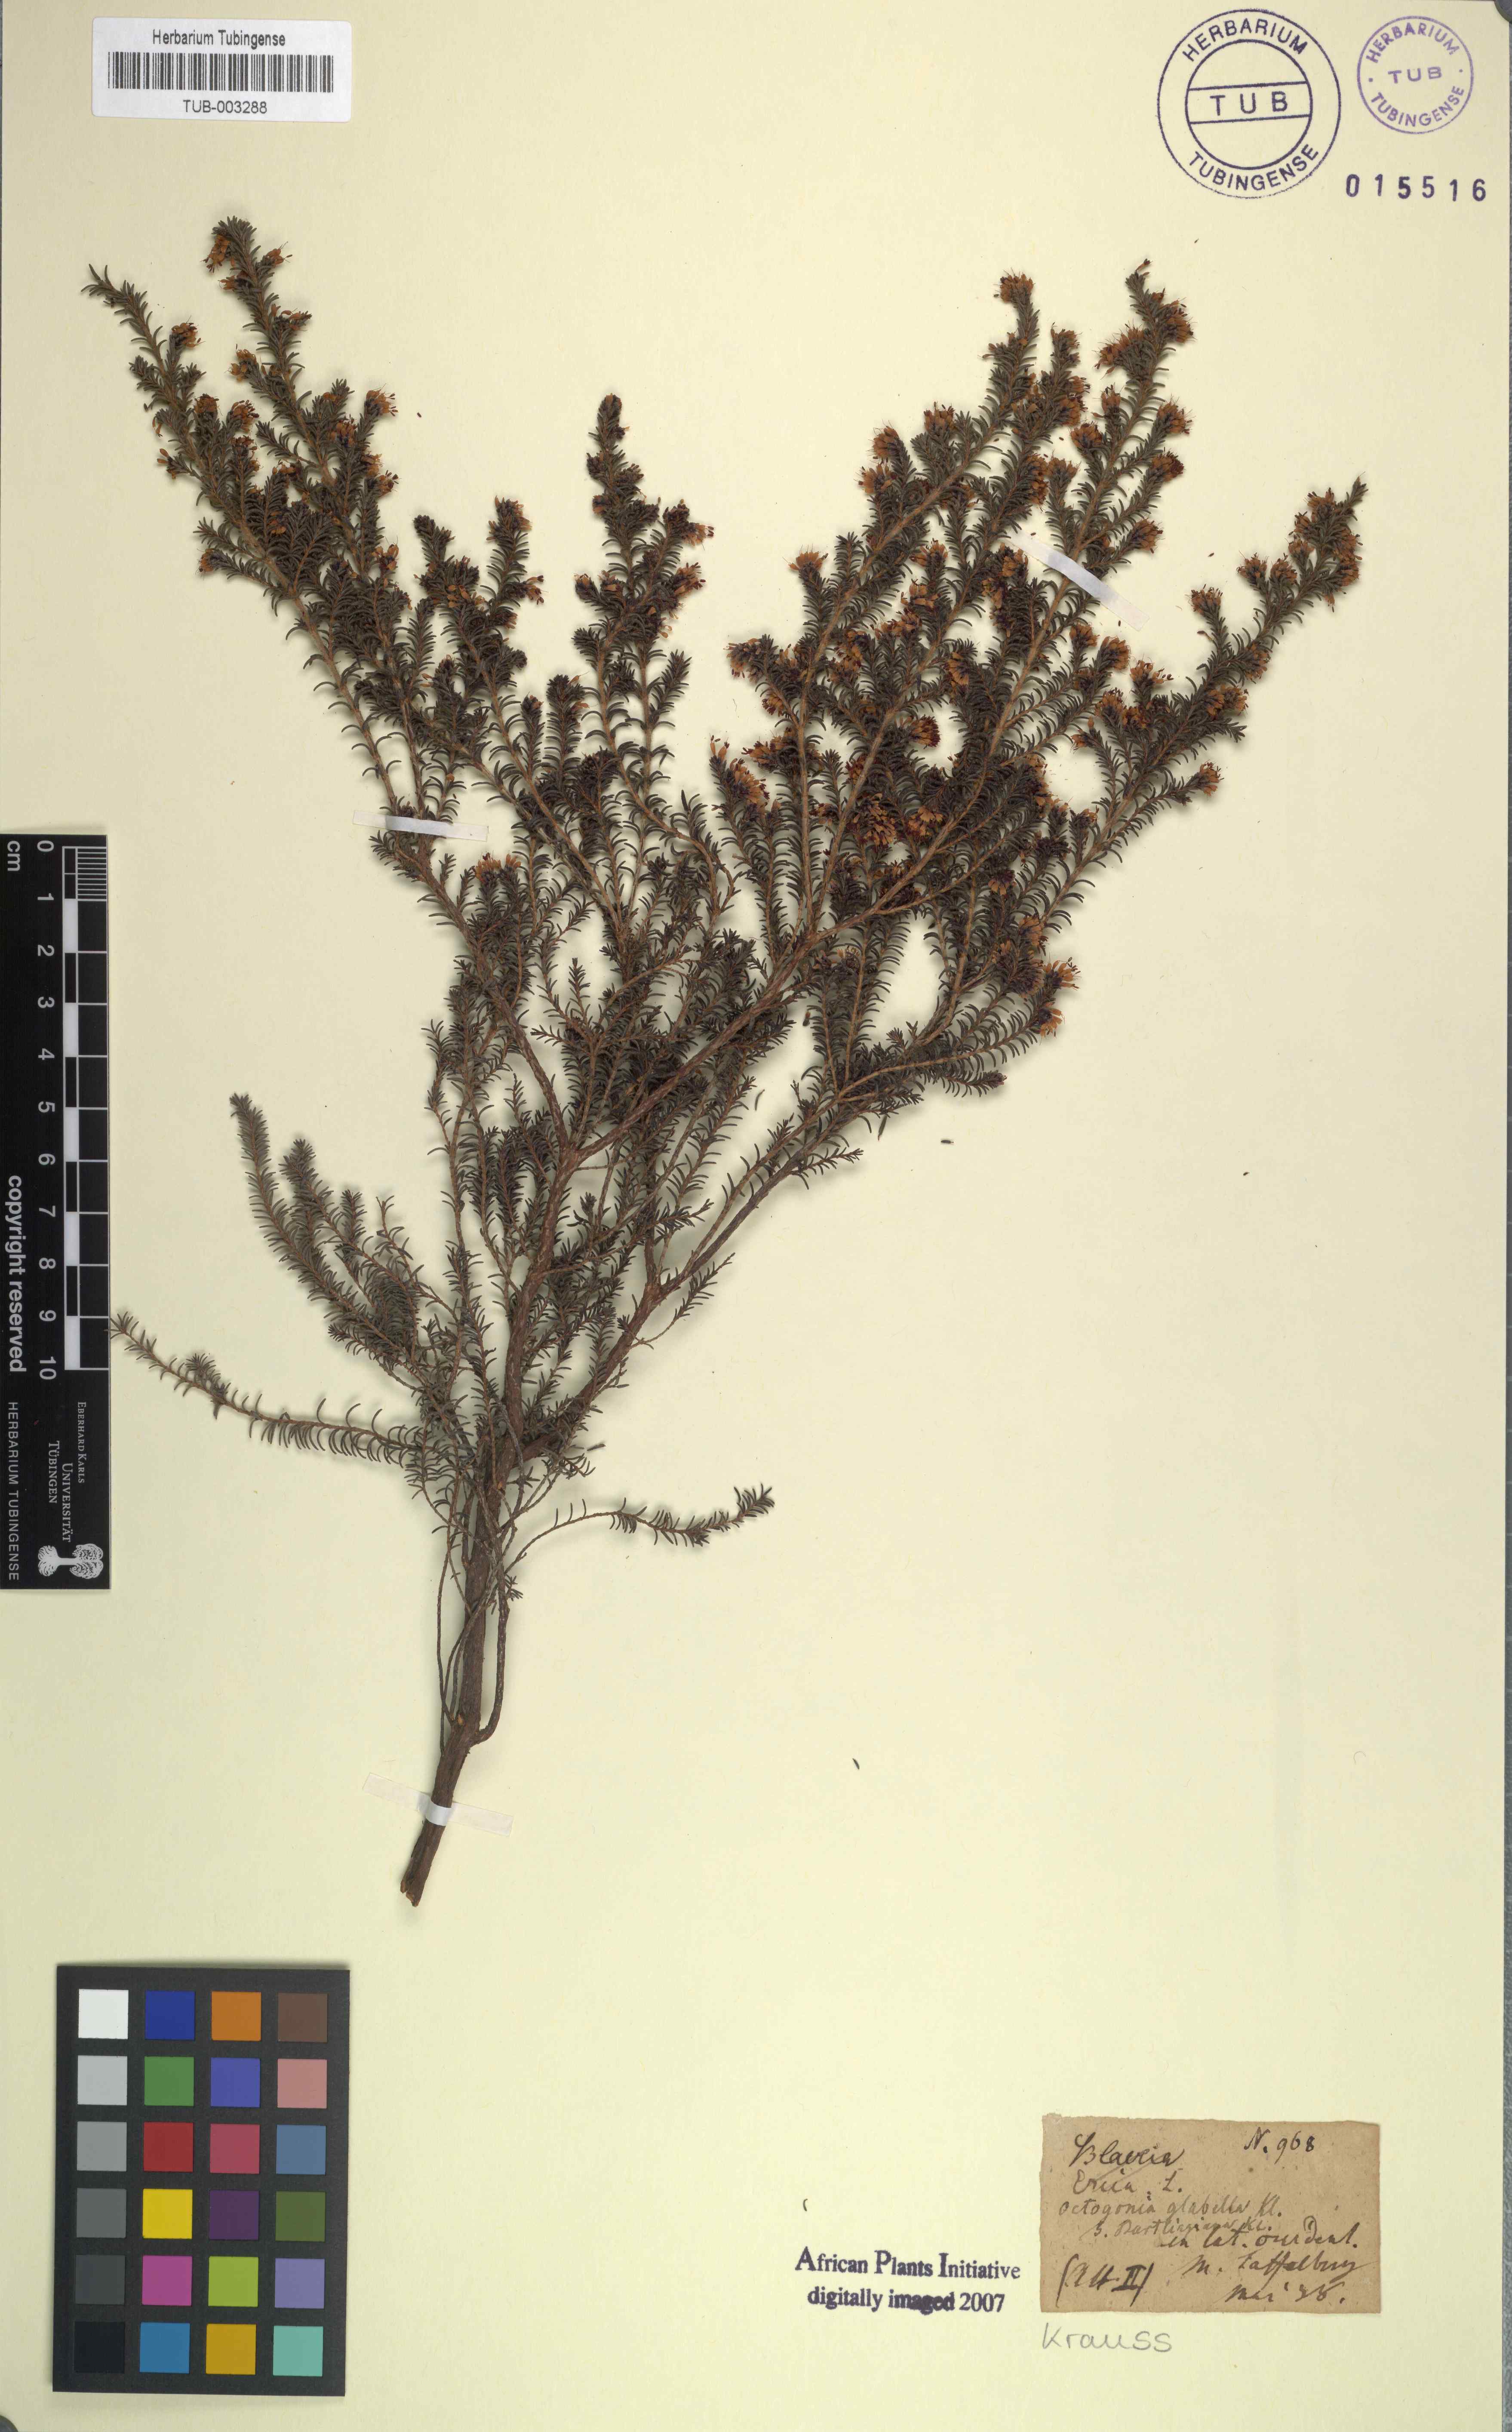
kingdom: Plantae
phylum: Tracheophyta
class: Magnoliopsida
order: Ericales
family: Ericaceae
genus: Erica
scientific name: Erica glabella
